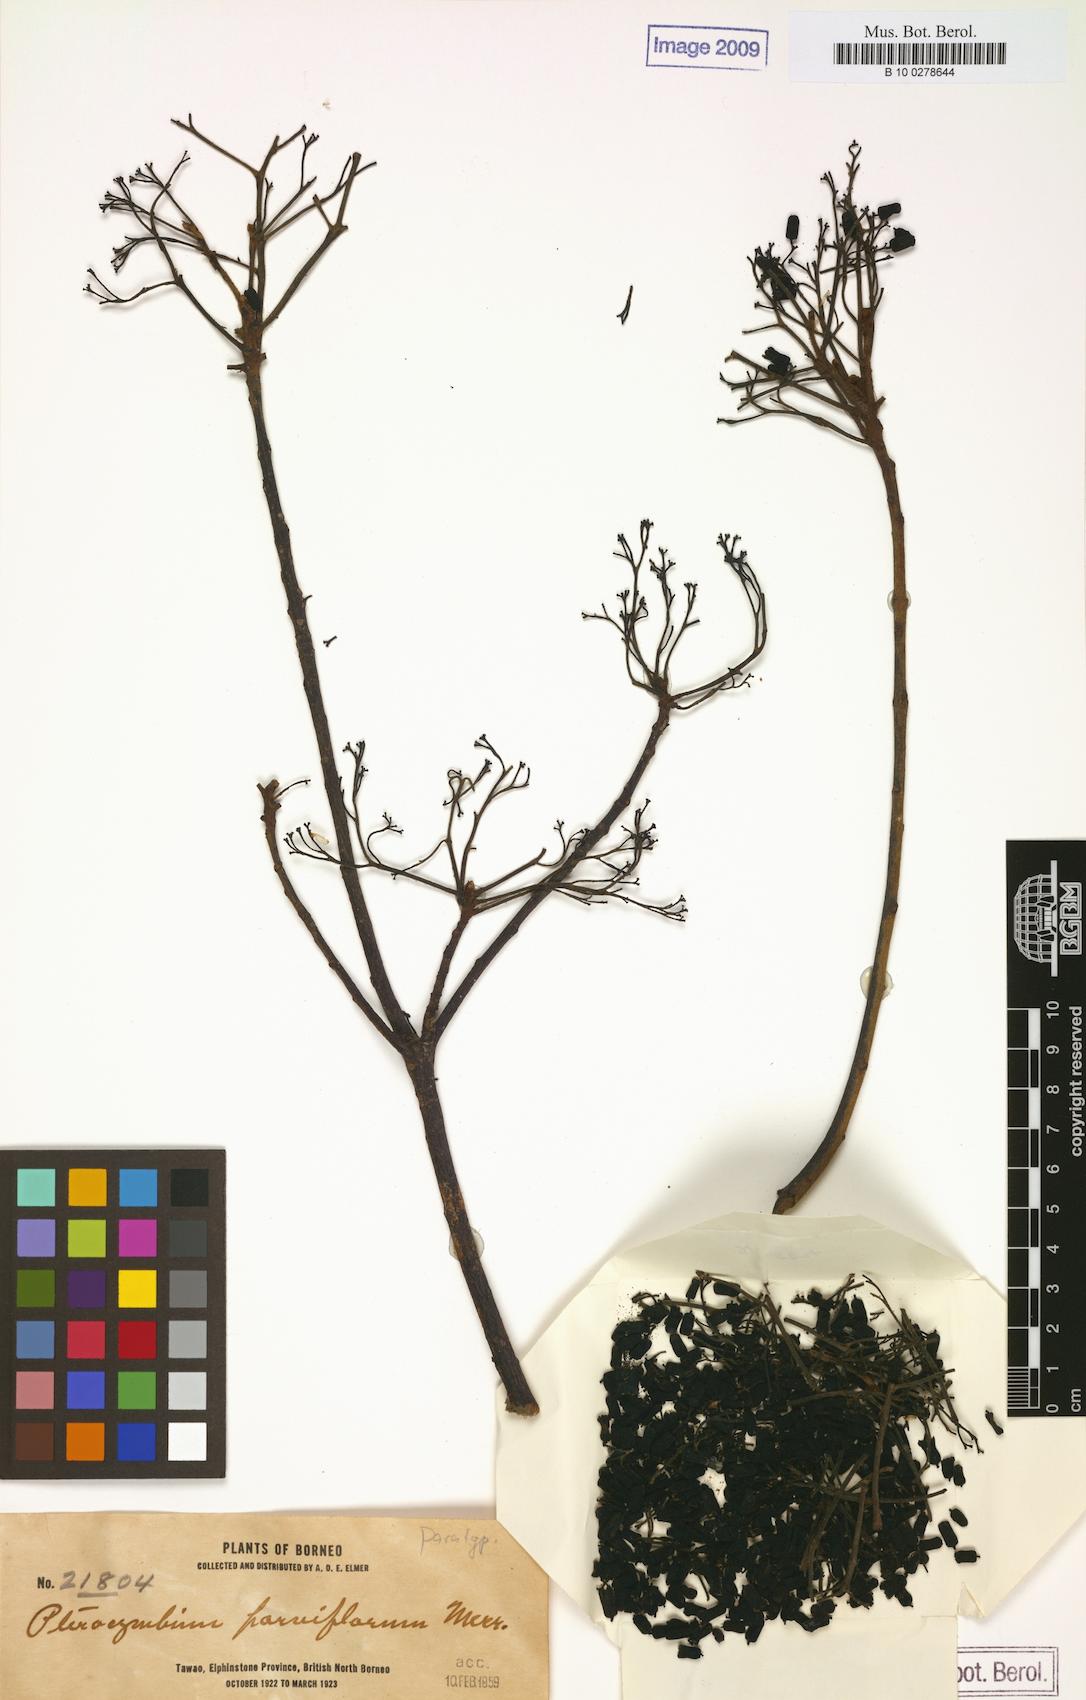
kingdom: Plantae
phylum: Tracheophyta
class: Magnoliopsida
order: Malvales
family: Malvaceae
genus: Pterocymbium
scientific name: Pterocymbium parviflorum
